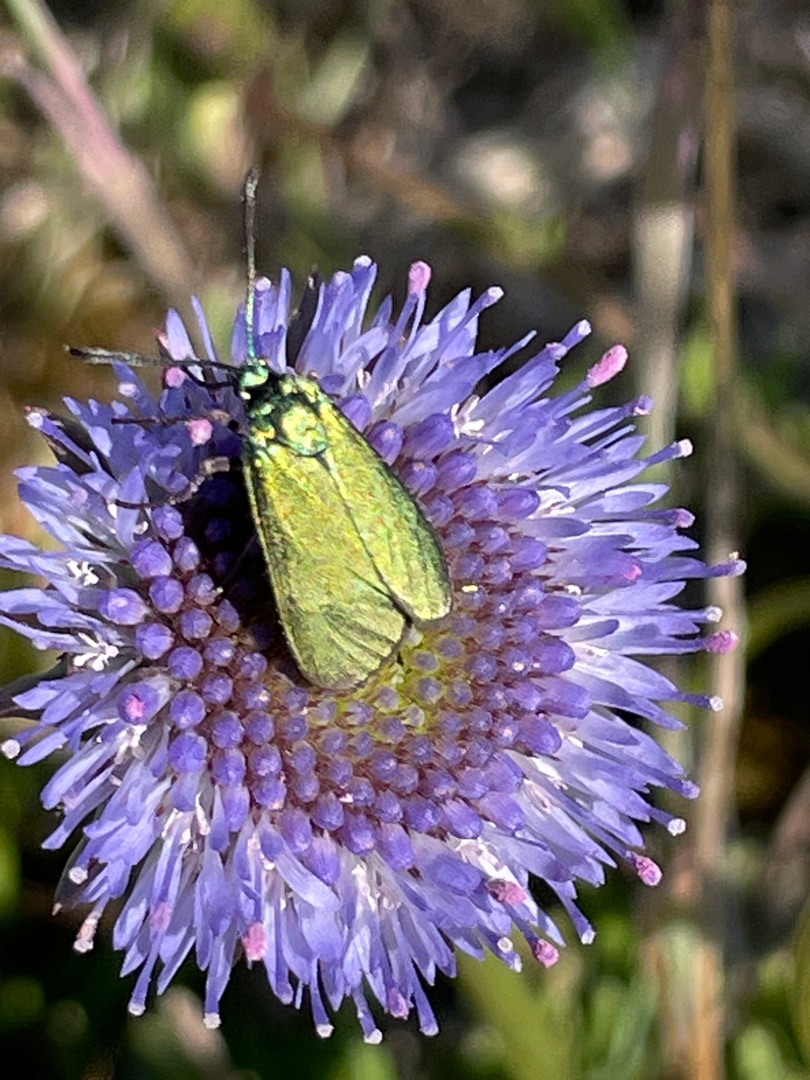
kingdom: Animalia
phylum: Arthropoda
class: Insecta
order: Lepidoptera
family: Zygaenidae
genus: Adscita
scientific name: Adscita statices
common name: Metalvinge
